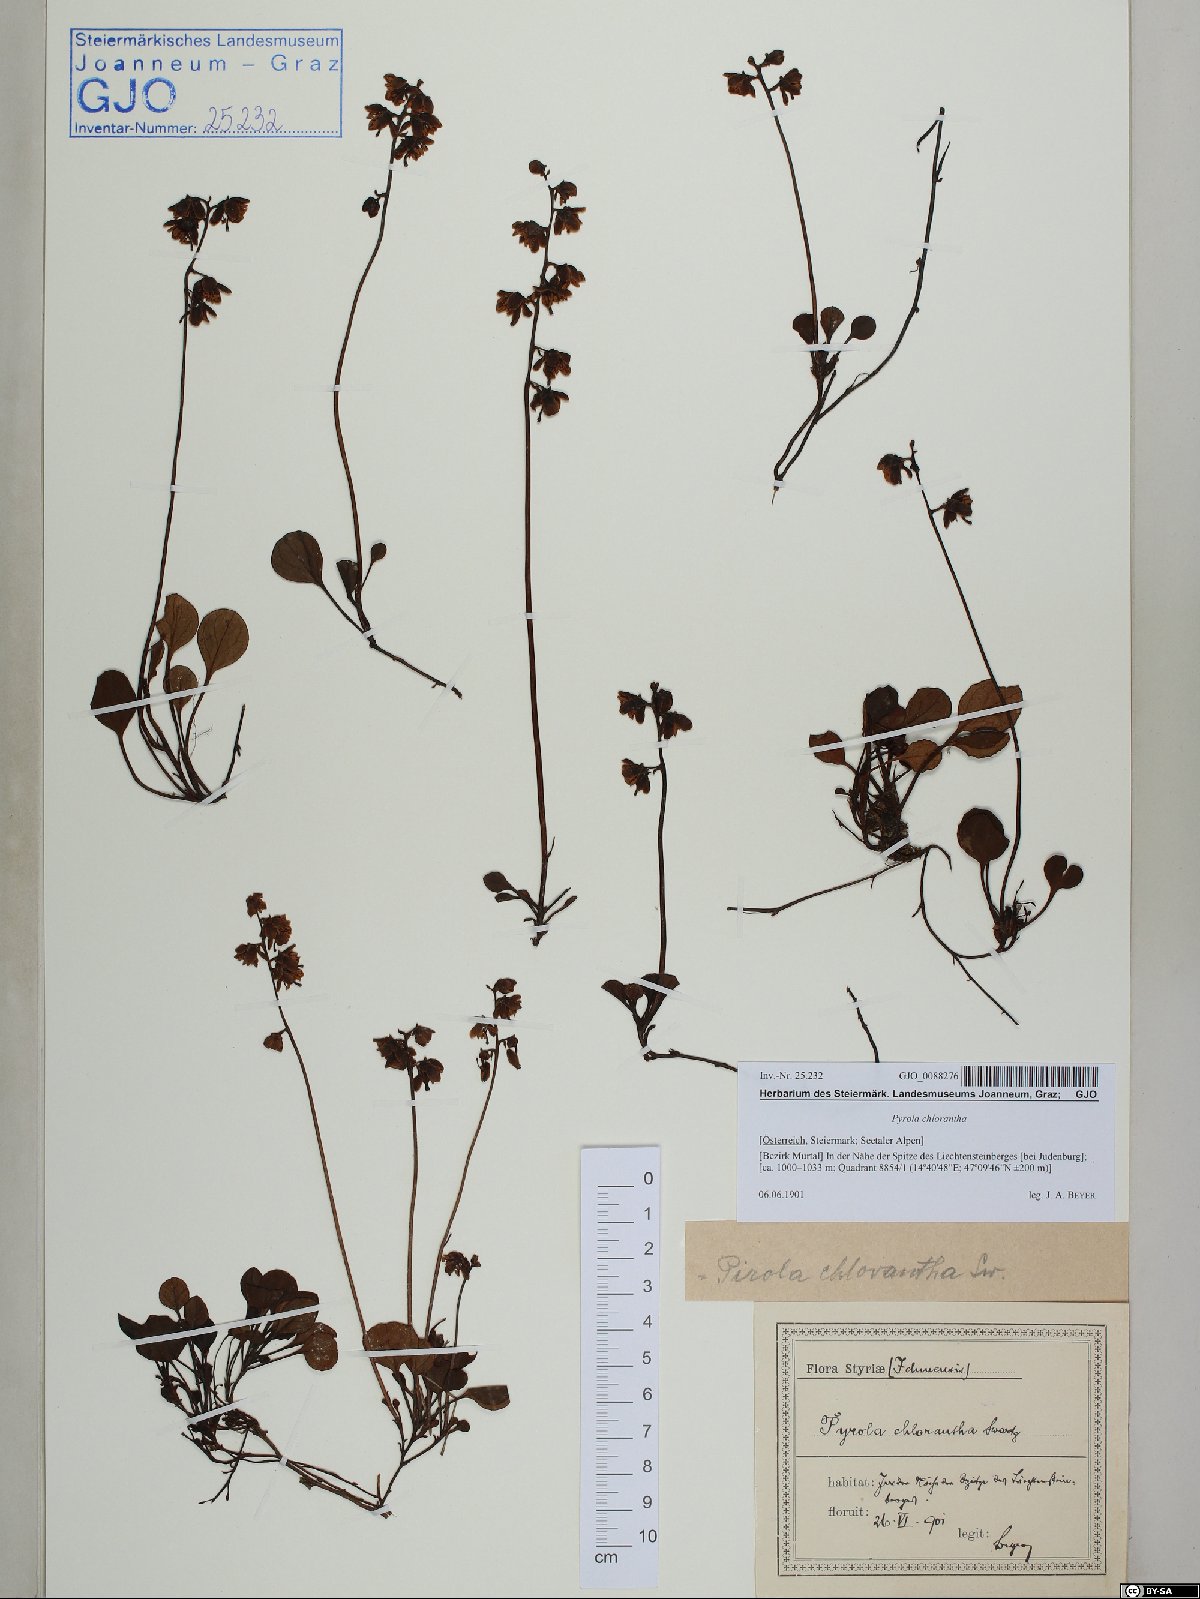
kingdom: Plantae
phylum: Tracheophyta
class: Magnoliopsida
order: Ericales
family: Ericaceae
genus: Pyrola
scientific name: Pyrola chlorantha
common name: Green wintergreen
